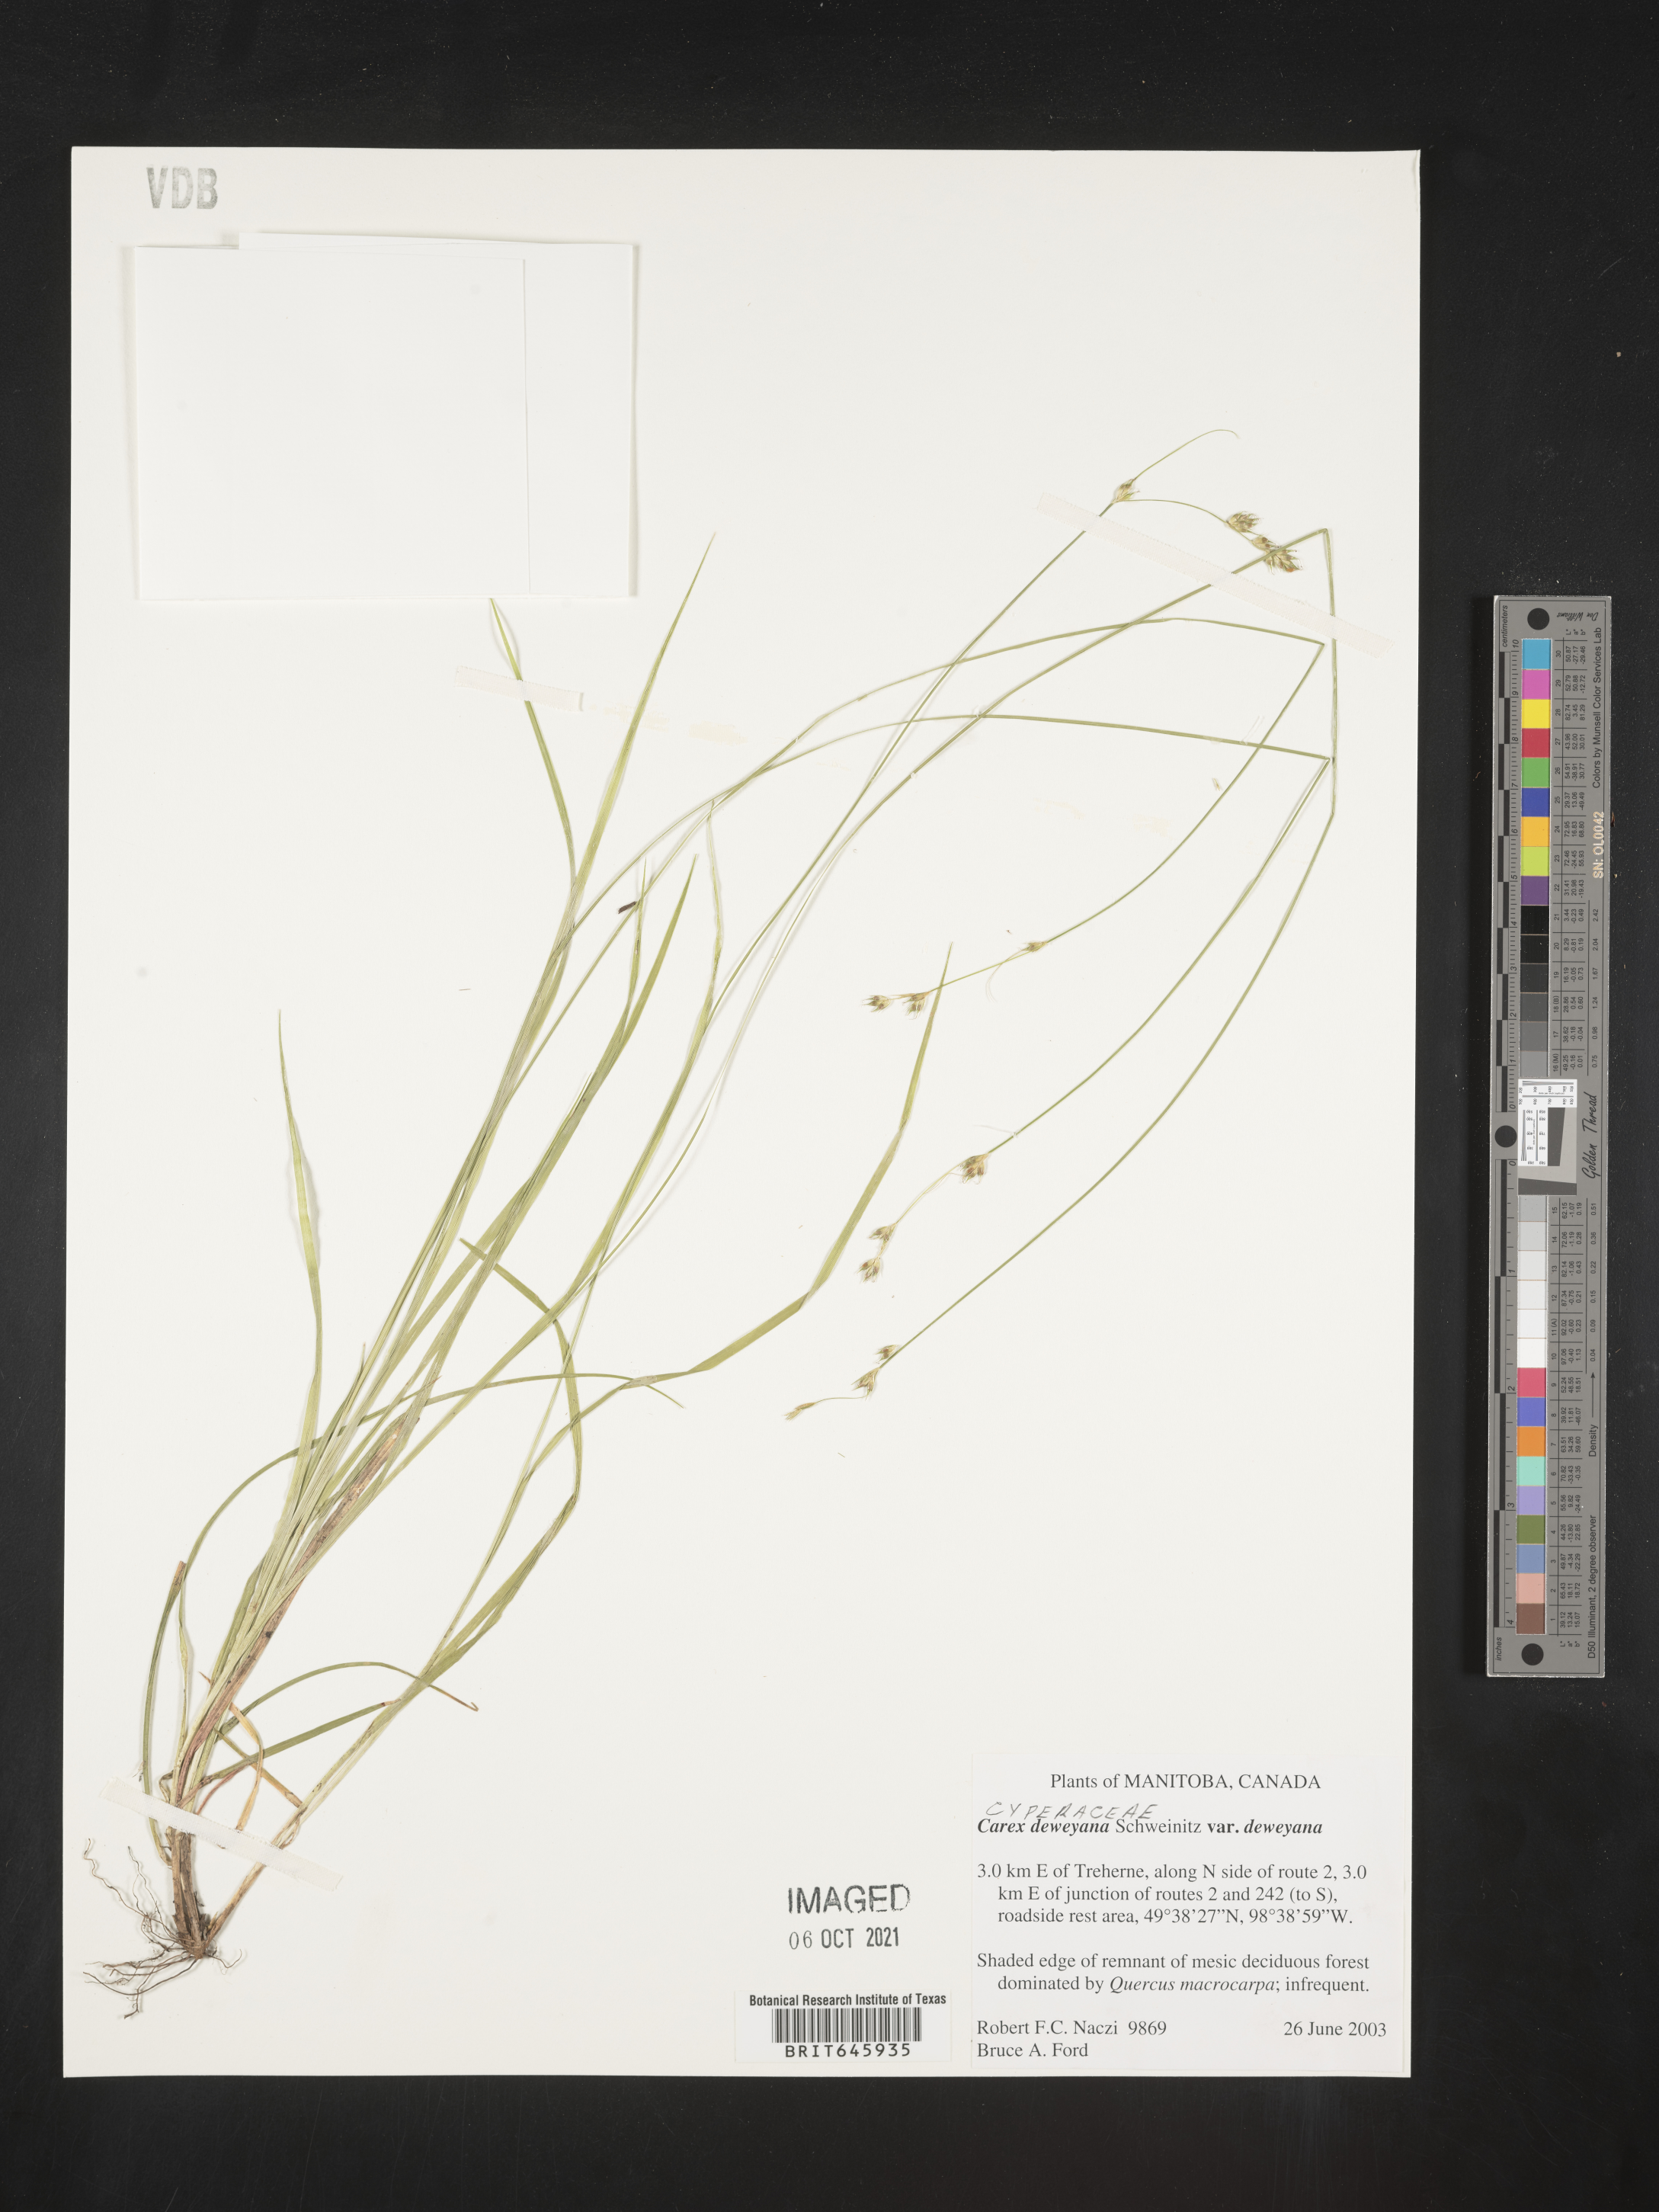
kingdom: Plantae
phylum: Tracheophyta
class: Liliopsida
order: Poales
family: Cyperaceae
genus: Carex
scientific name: Carex deweyana
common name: Dewey's sedge
